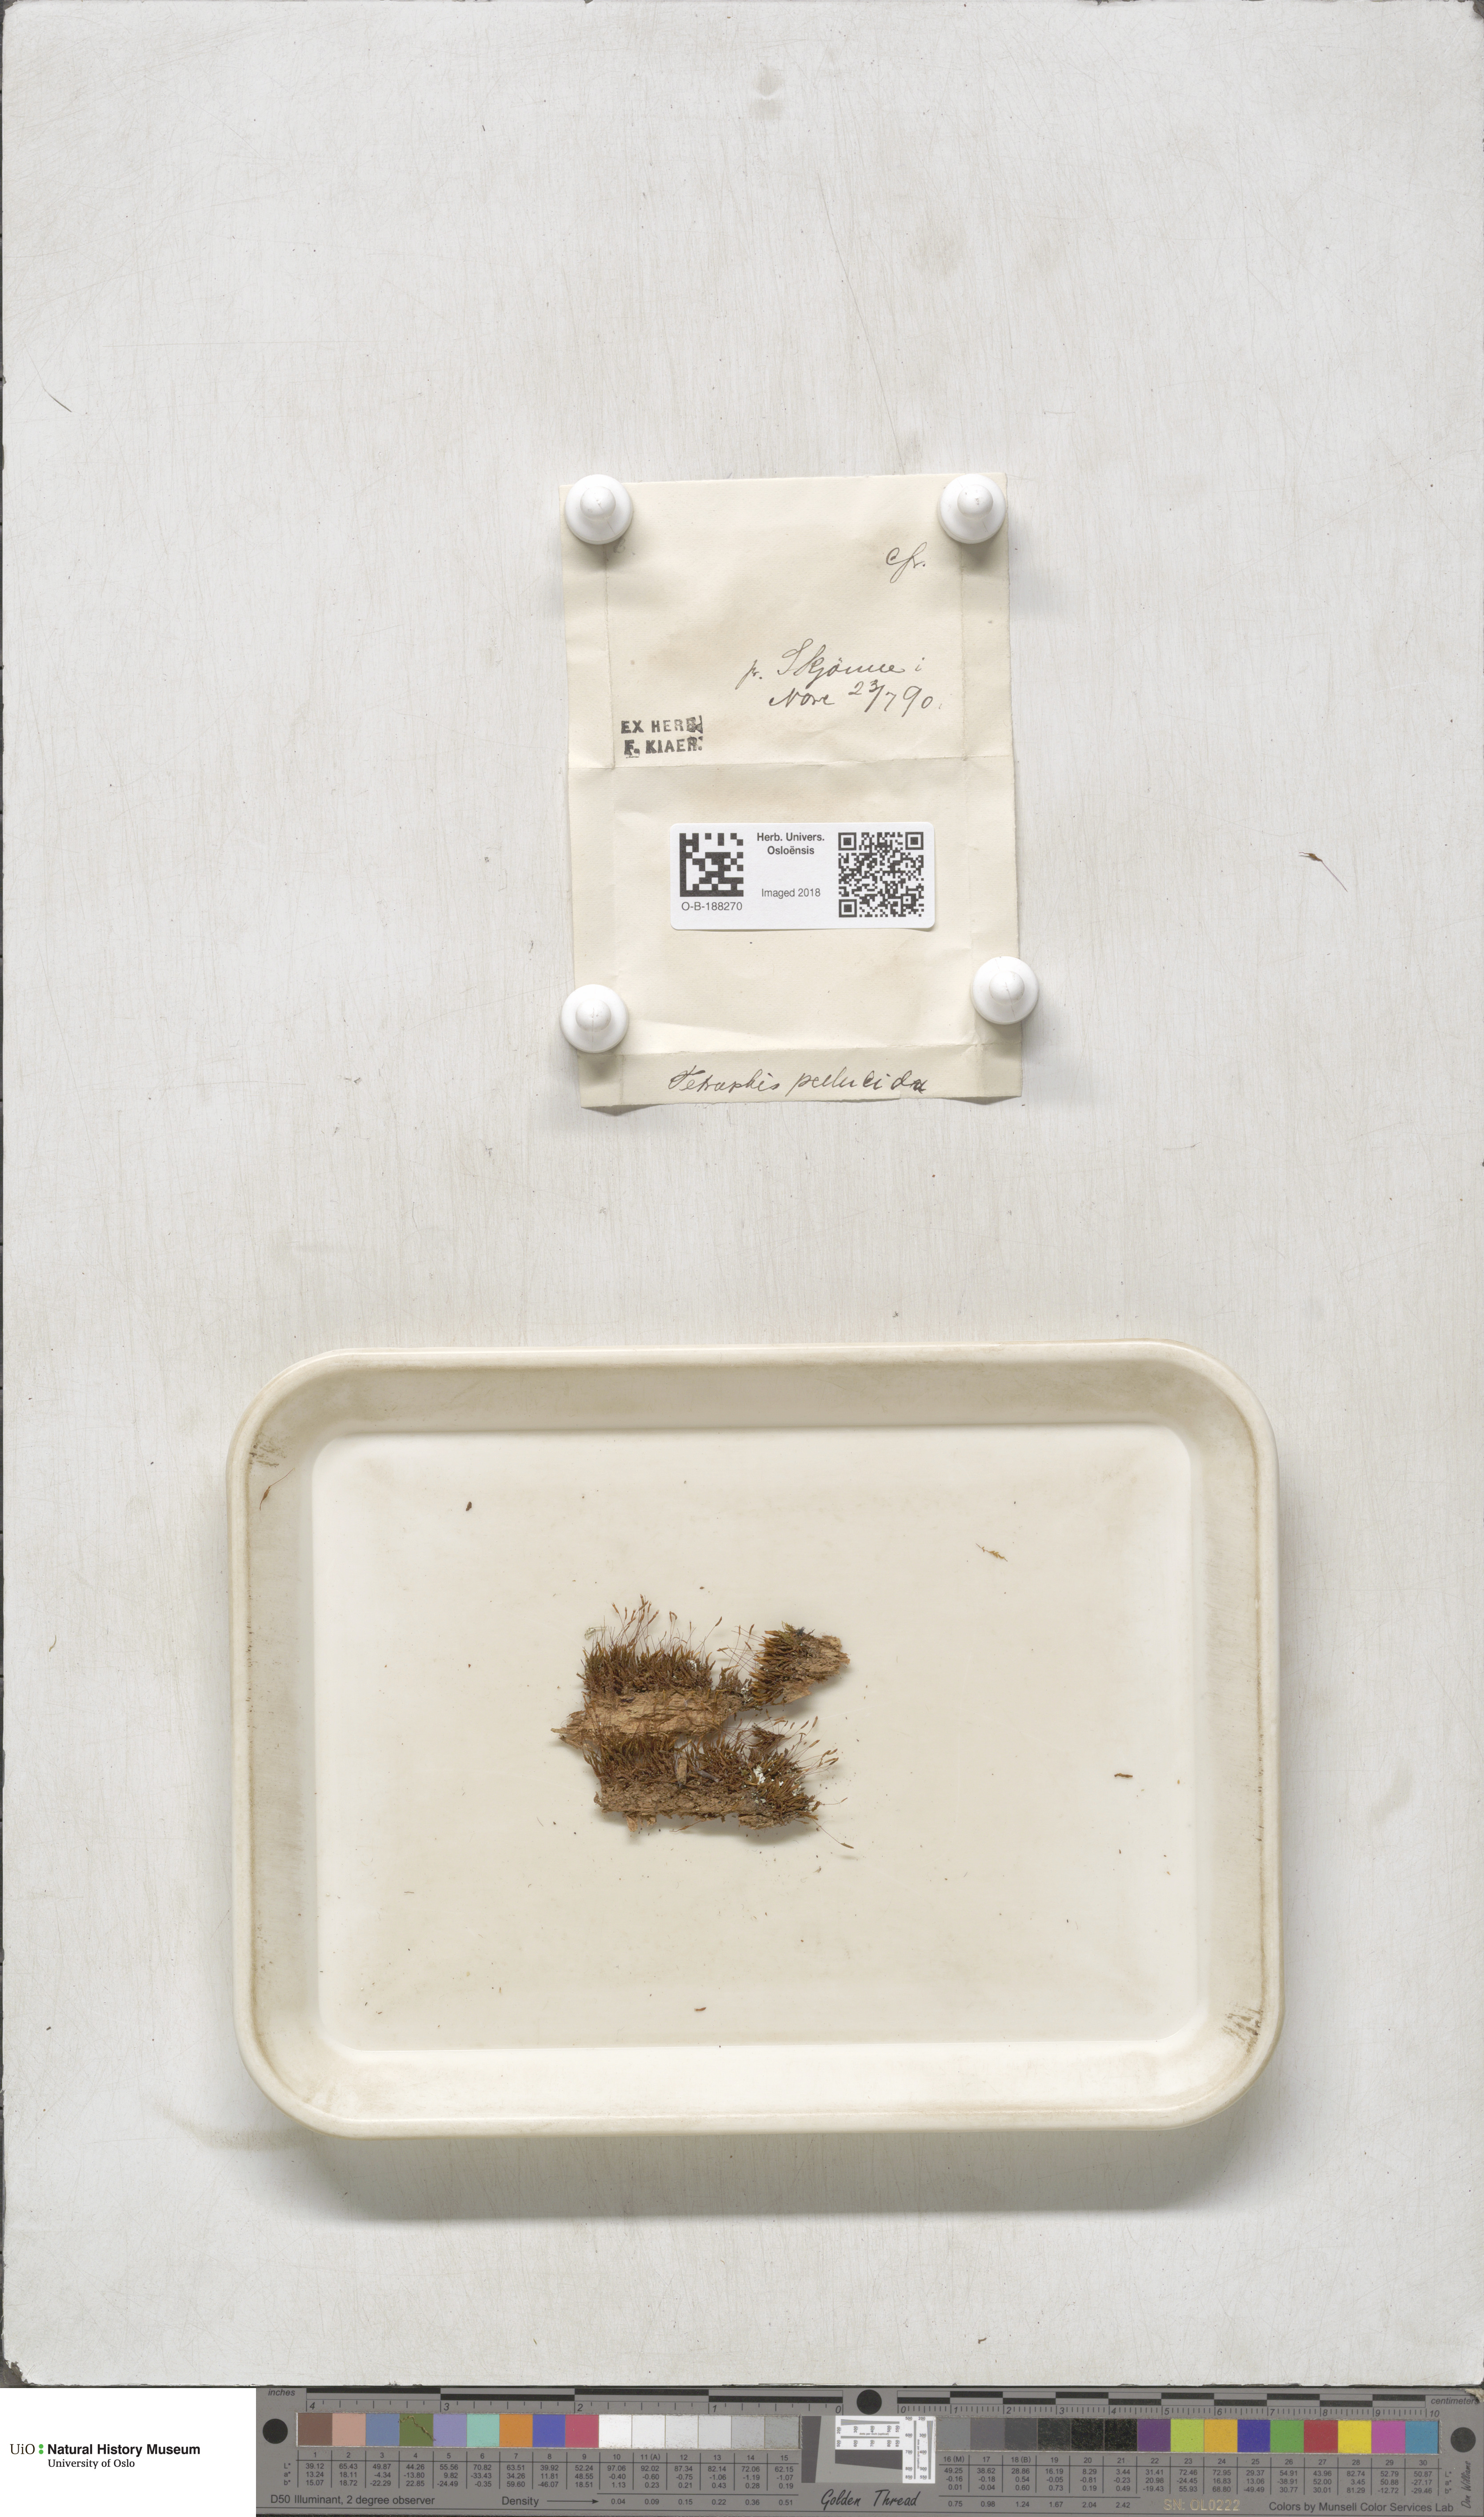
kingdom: Plantae
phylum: Bryophyta
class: Polytrichopsida
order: Tetraphidales
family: Tetraphidaceae
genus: Tetraphis
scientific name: Tetraphis pellucida
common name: Common four-toothed moss
